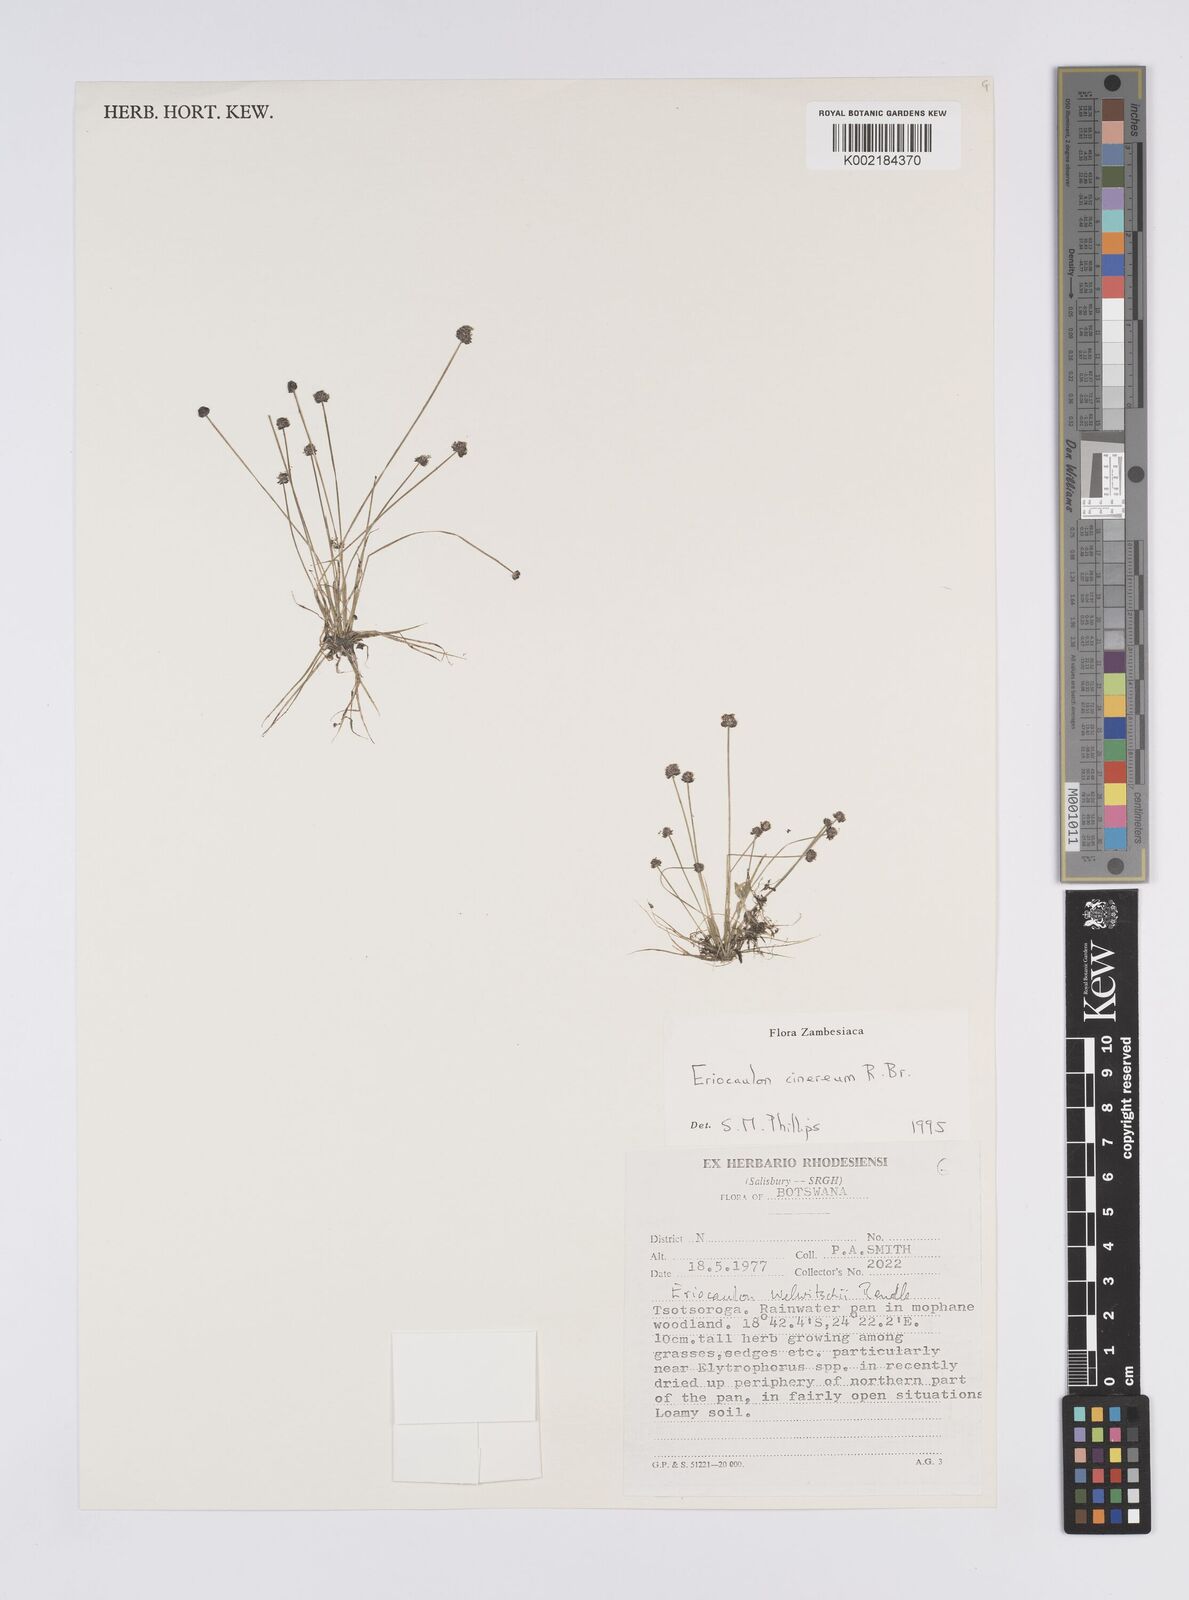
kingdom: Plantae
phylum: Tracheophyta
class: Liliopsida
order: Poales
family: Eriocaulaceae
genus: Eriocaulon
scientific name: Eriocaulon cinereum
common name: Ashy pipewort
